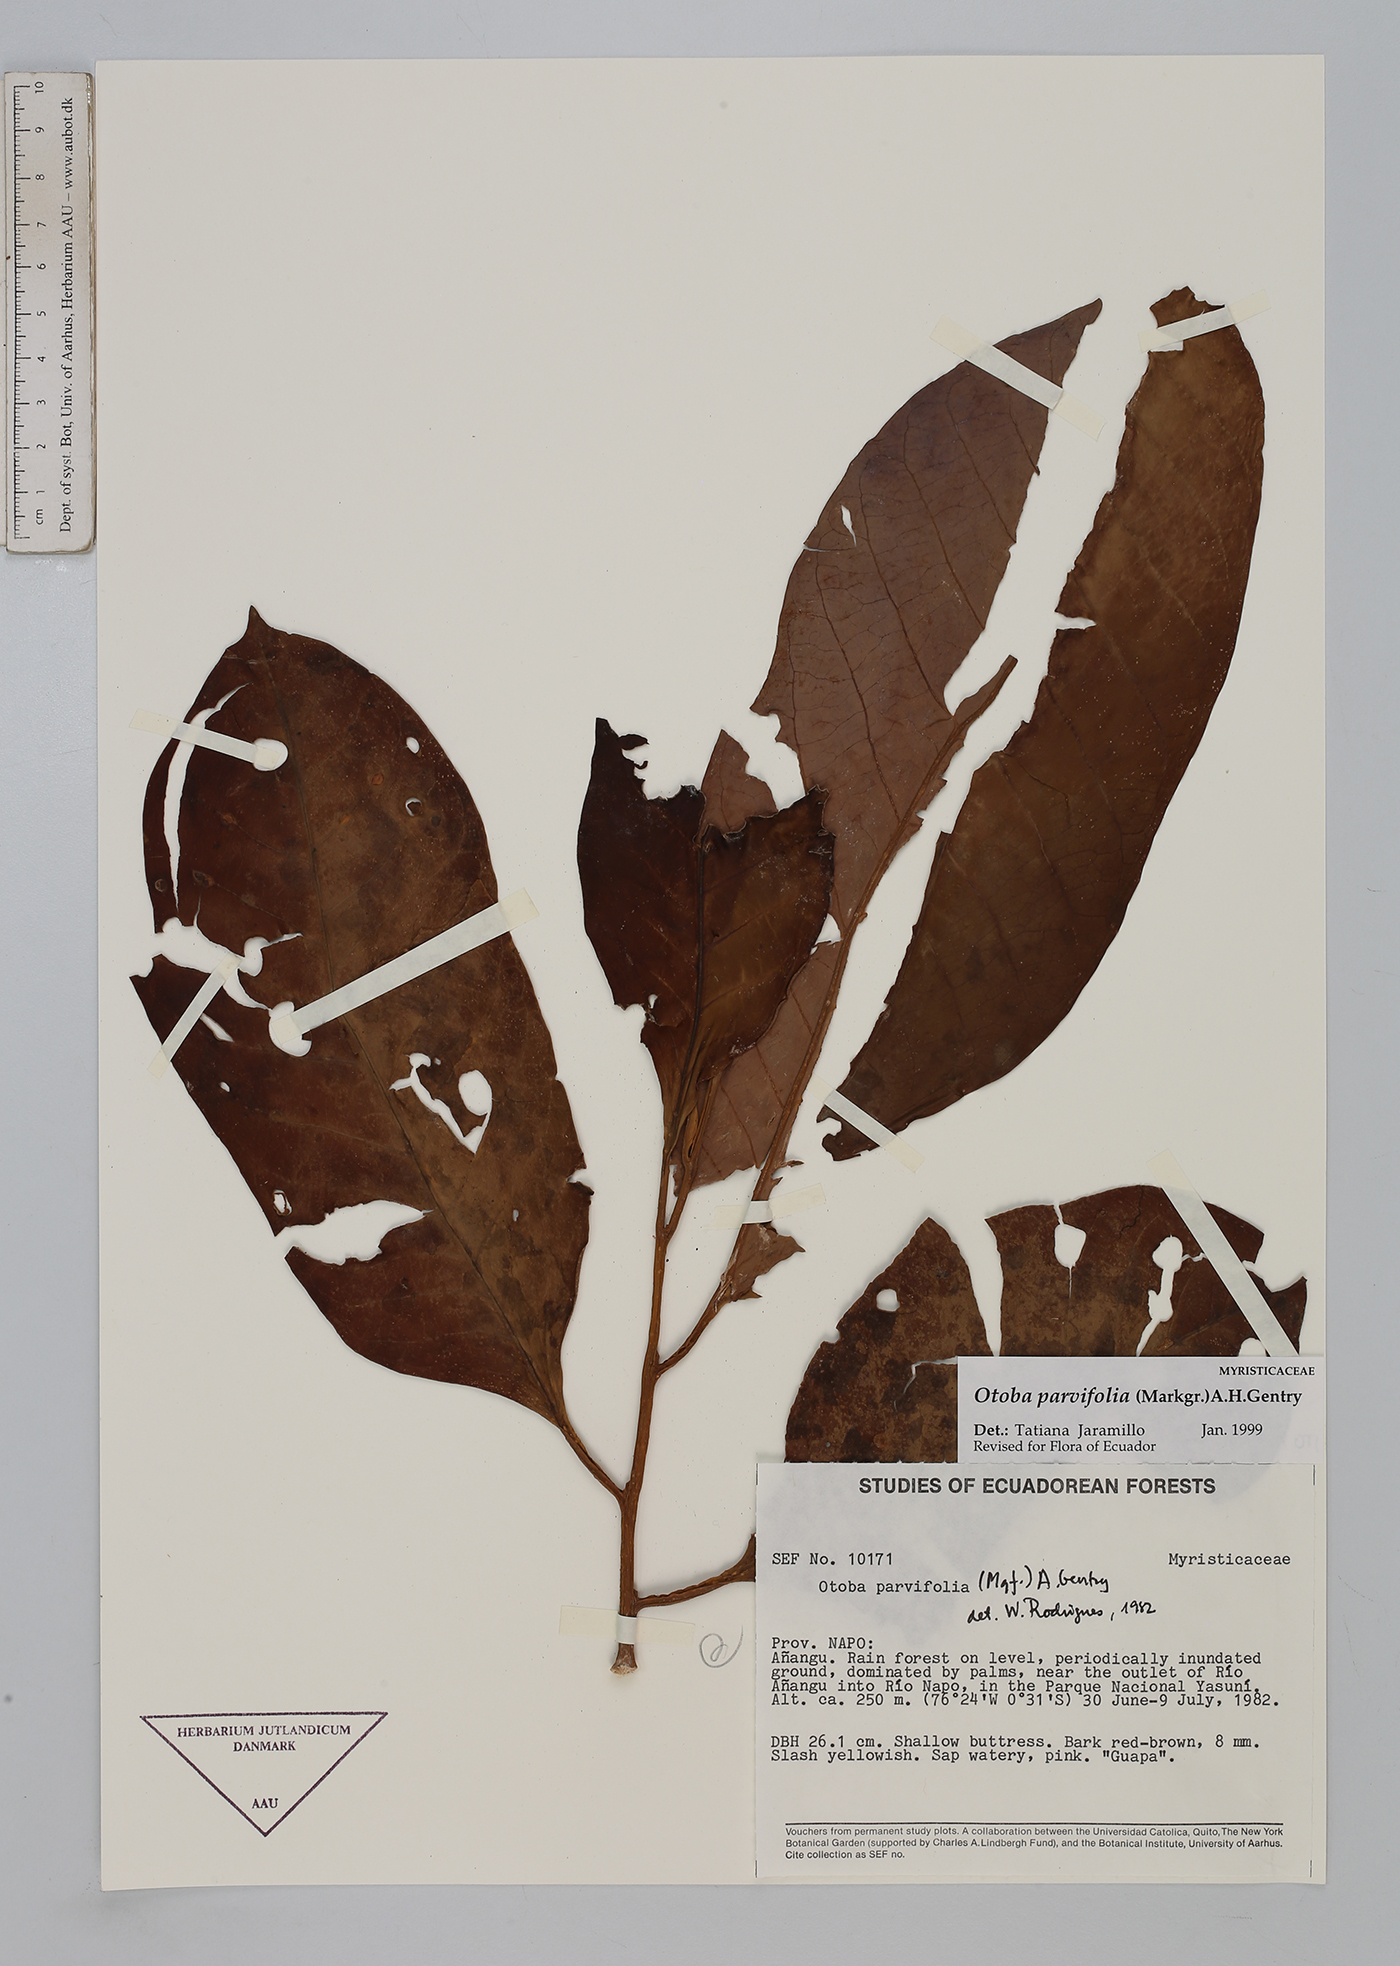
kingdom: Plantae
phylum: Tracheophyta
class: Magnoliopsida
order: Magnoliales
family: Myristicaceae
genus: Otoba
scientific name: Otoba parvifolia
